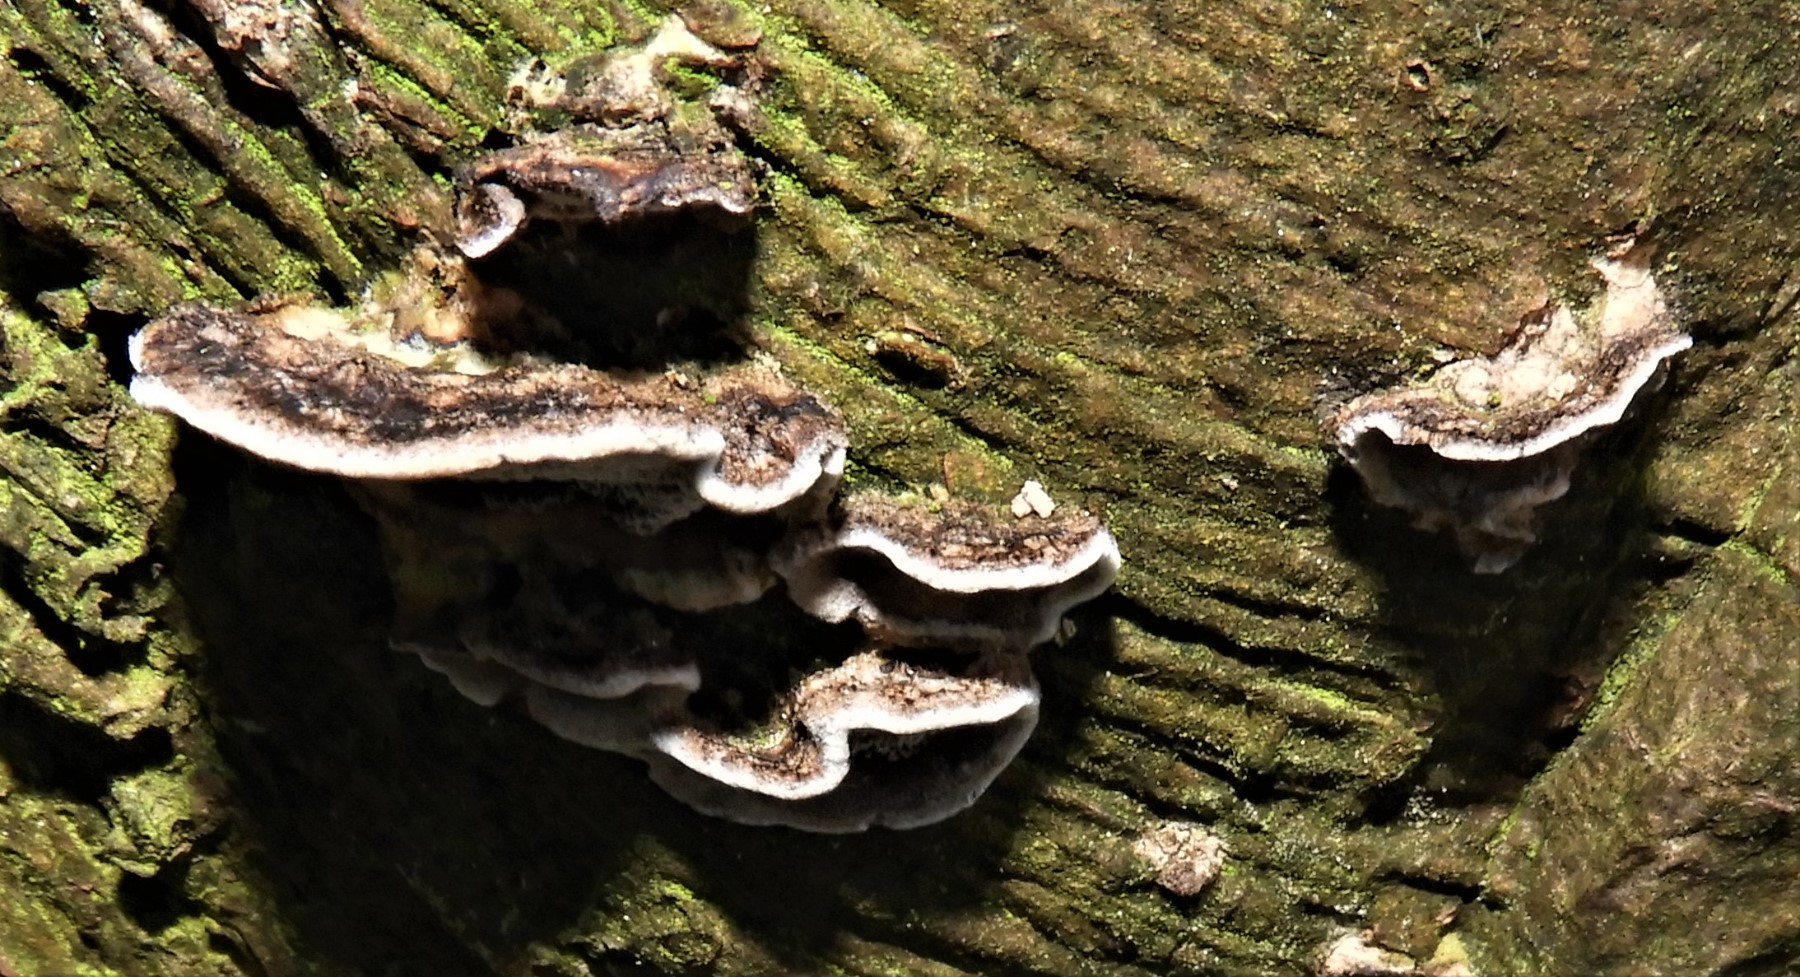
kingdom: Fungi
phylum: Basidiomycota
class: Agaricomycetes
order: Polyporales
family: Phanerochaetaceae
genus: Bjerkandera
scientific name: Bjerkandera adusta
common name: sveden sodporesvamp
